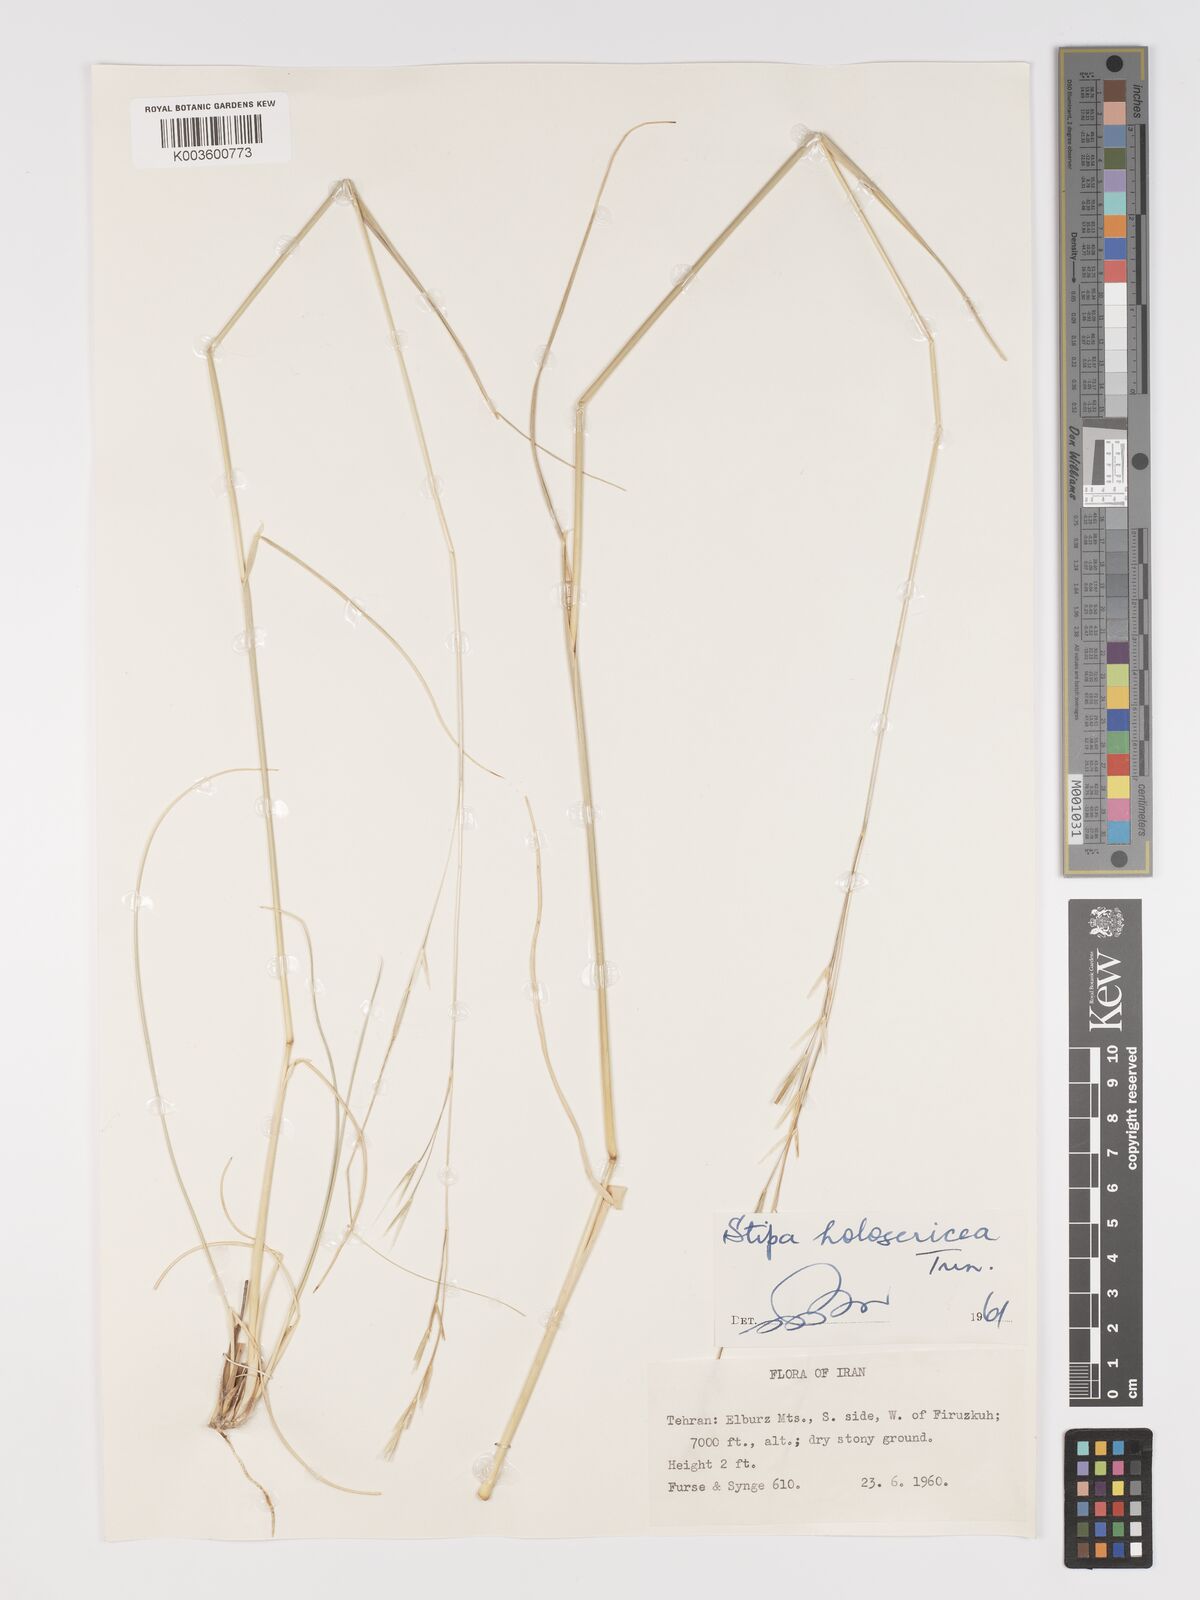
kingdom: Plantae
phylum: Tracheophyta
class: Liliopsida
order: Poales
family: Poaceae
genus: Stipa
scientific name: Stipa lagascae
